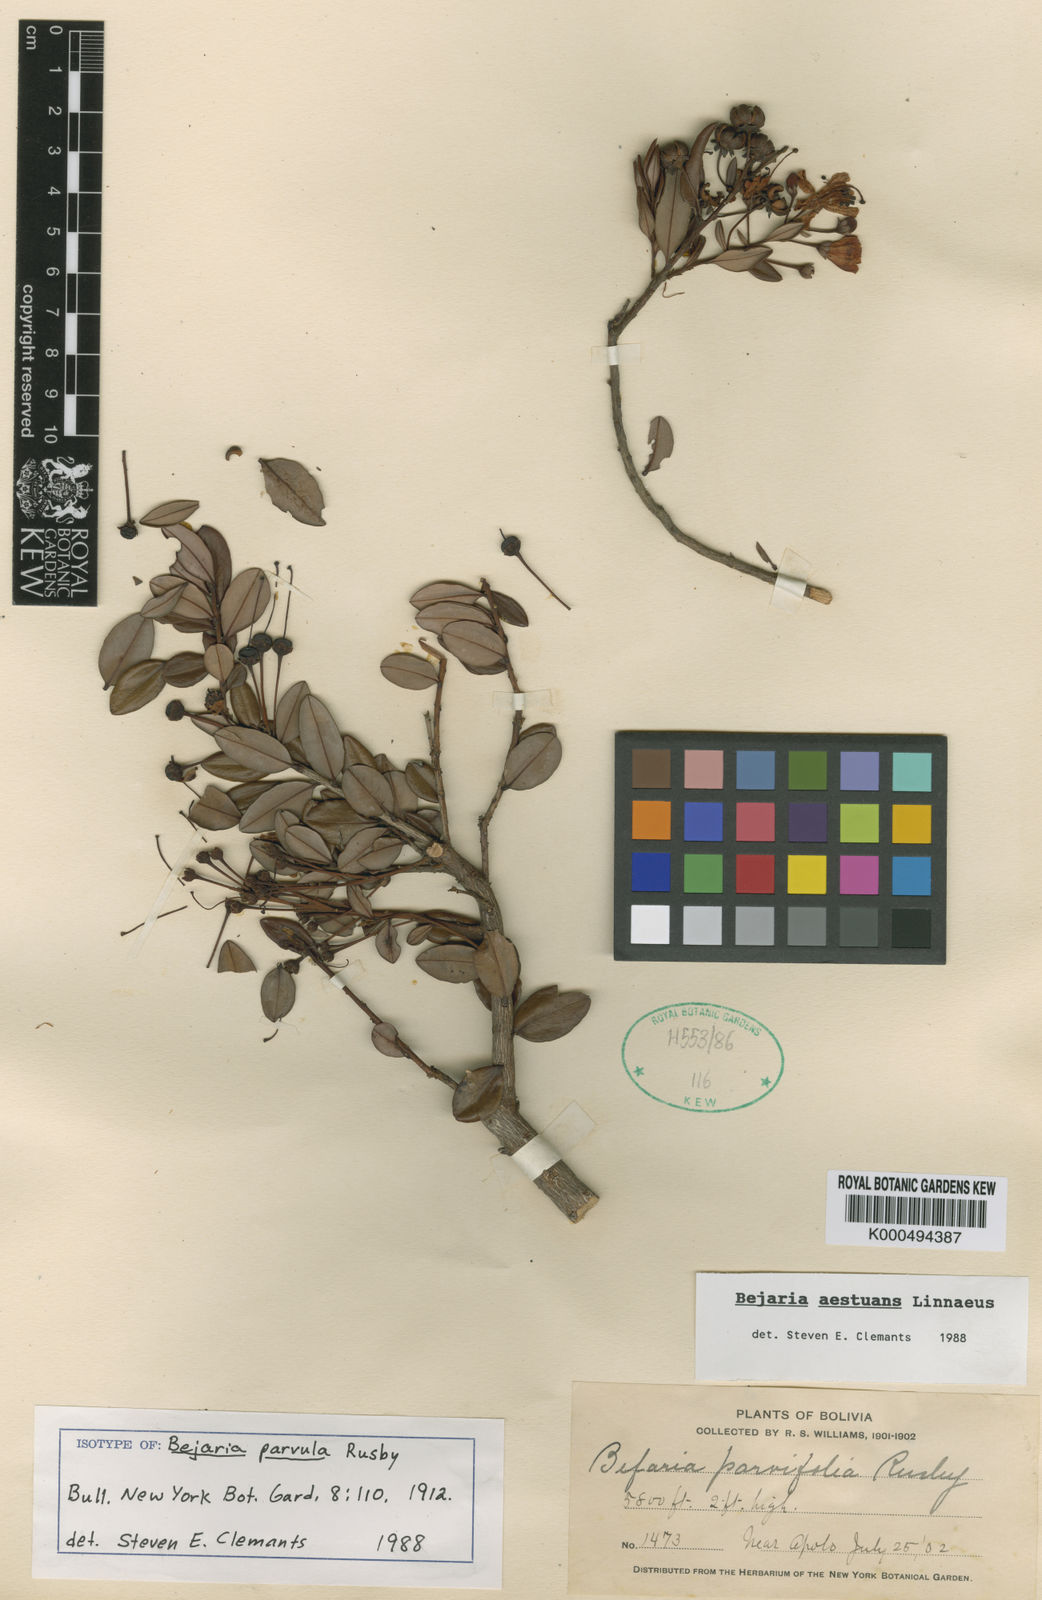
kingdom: Plantae
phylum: Tracheophyta
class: Magnoliopsida
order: Ericales
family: Ericaceae
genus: Bejaria
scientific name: Bejaria
